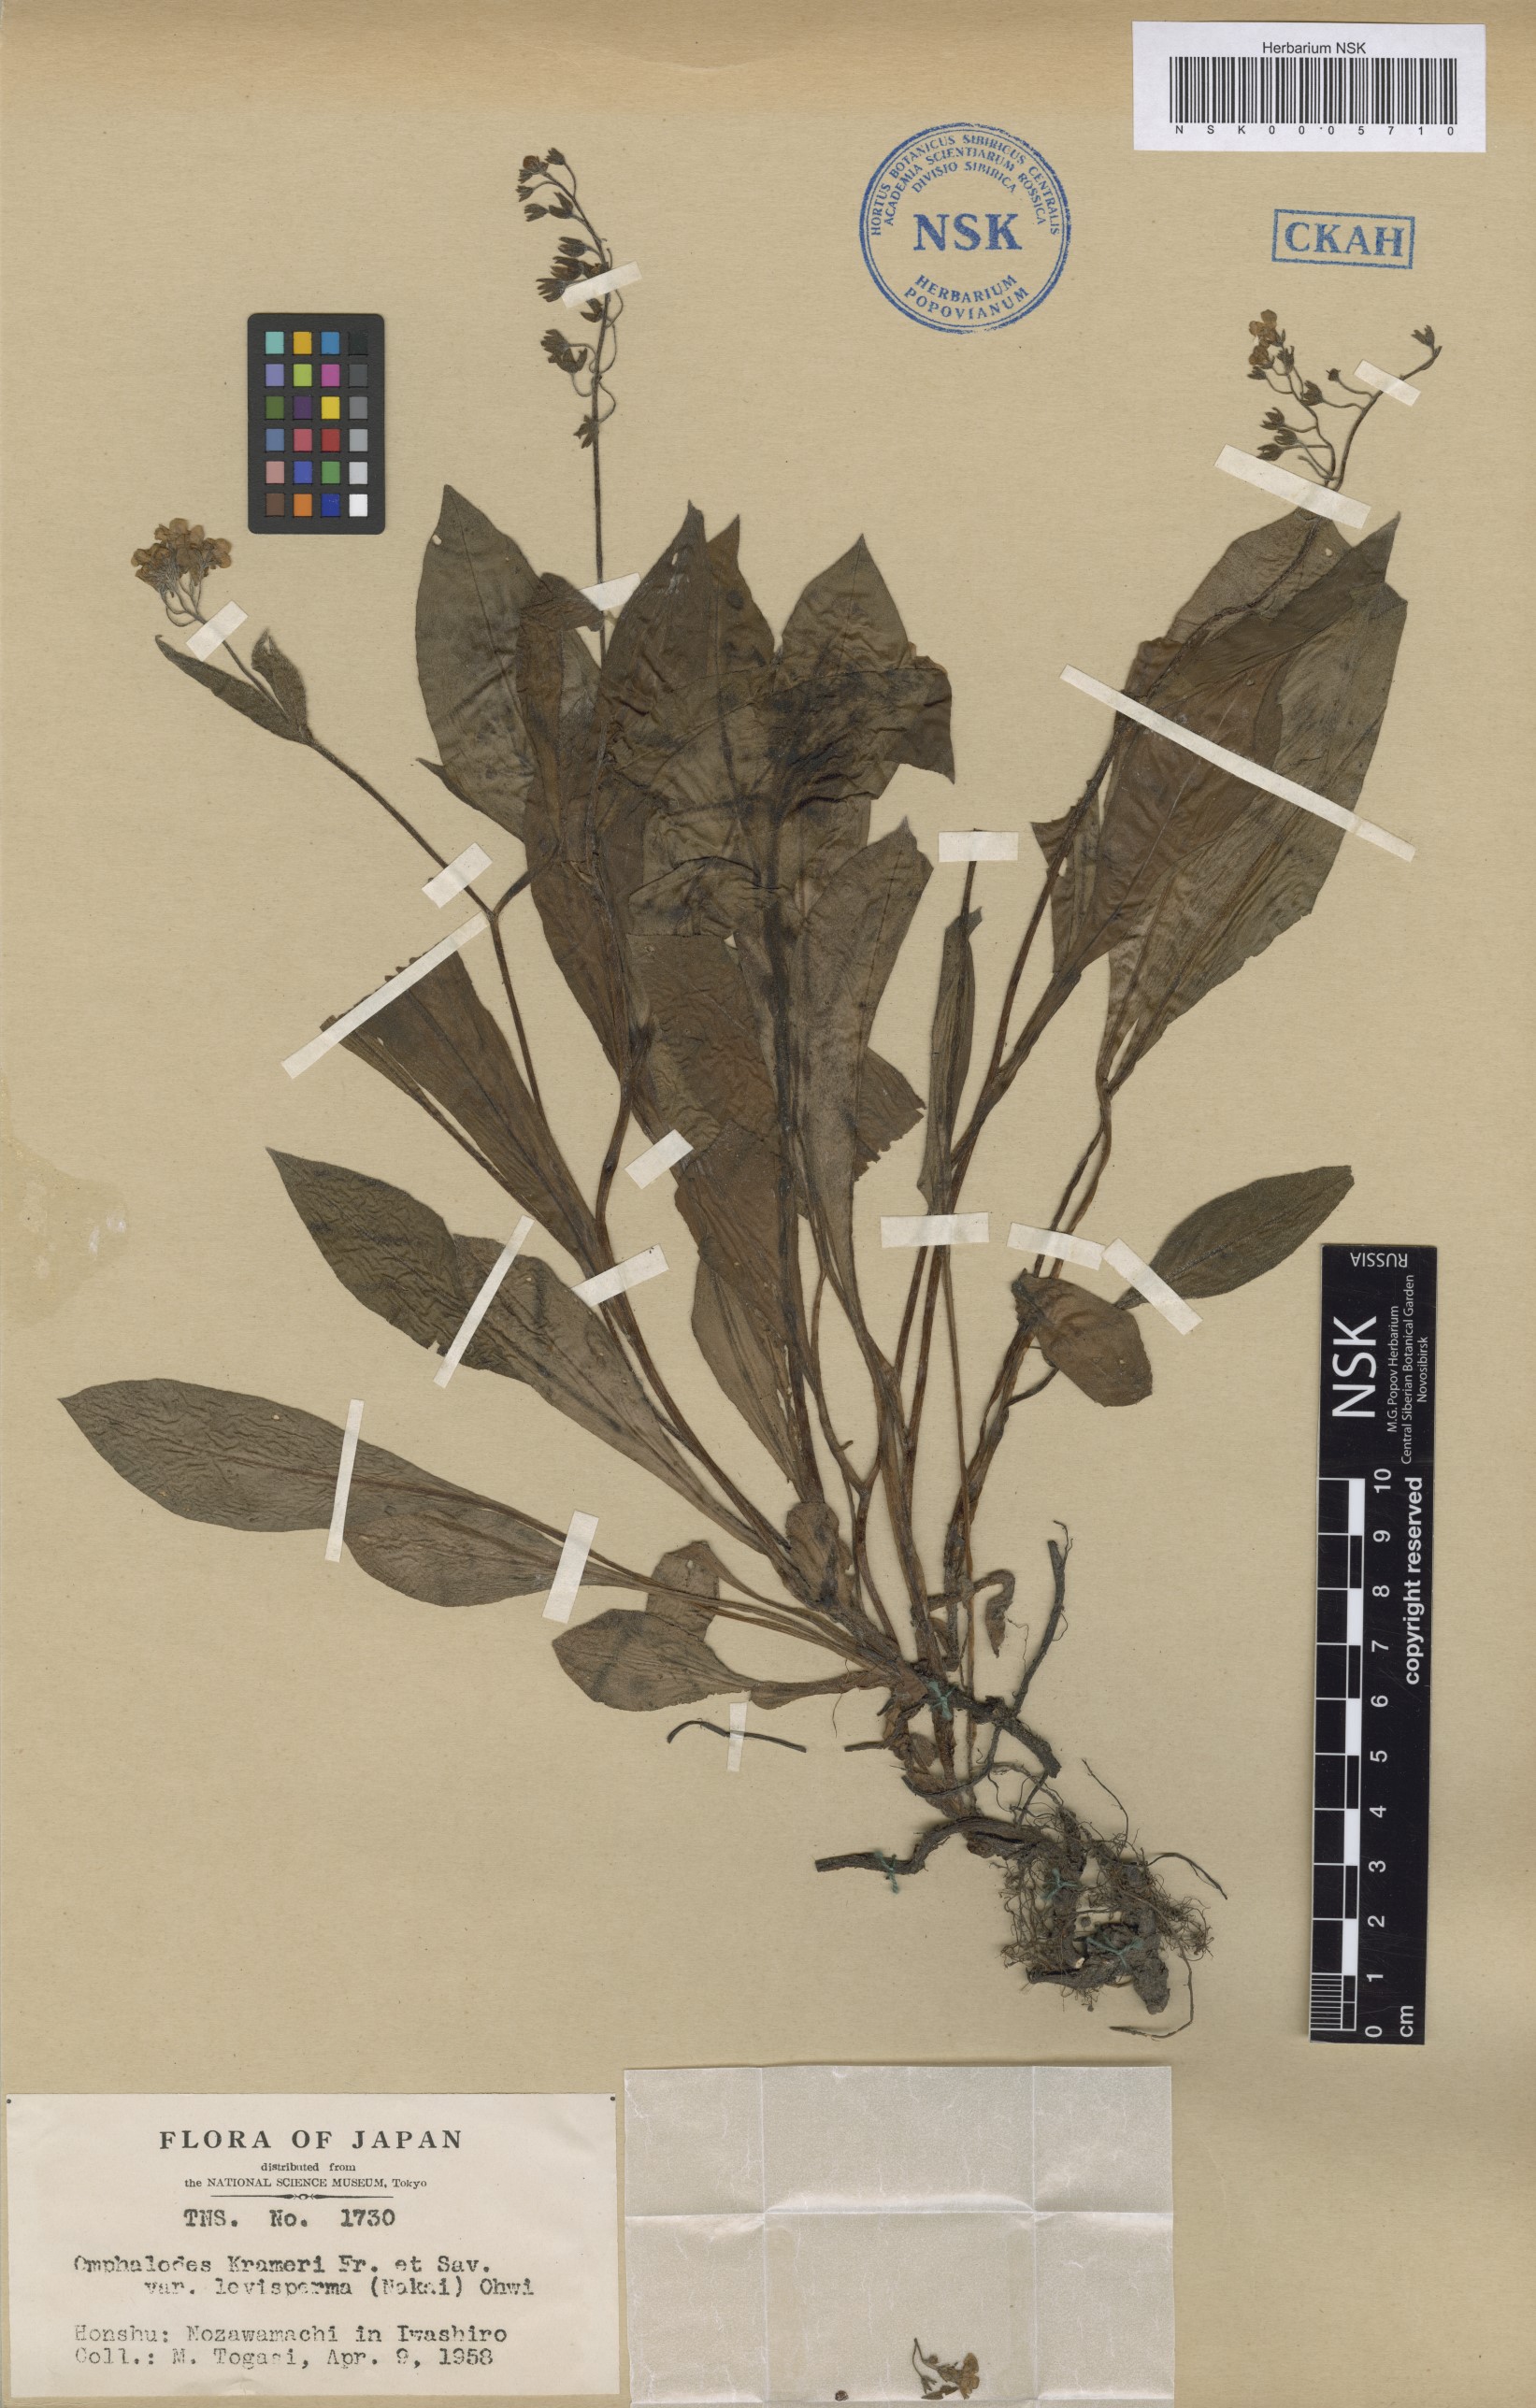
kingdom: Plantae
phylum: Tracheophyta
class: Magnoliopsida
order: Boraginales
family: Boraginaceae
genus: Nihon
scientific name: Nihon laevispermum
